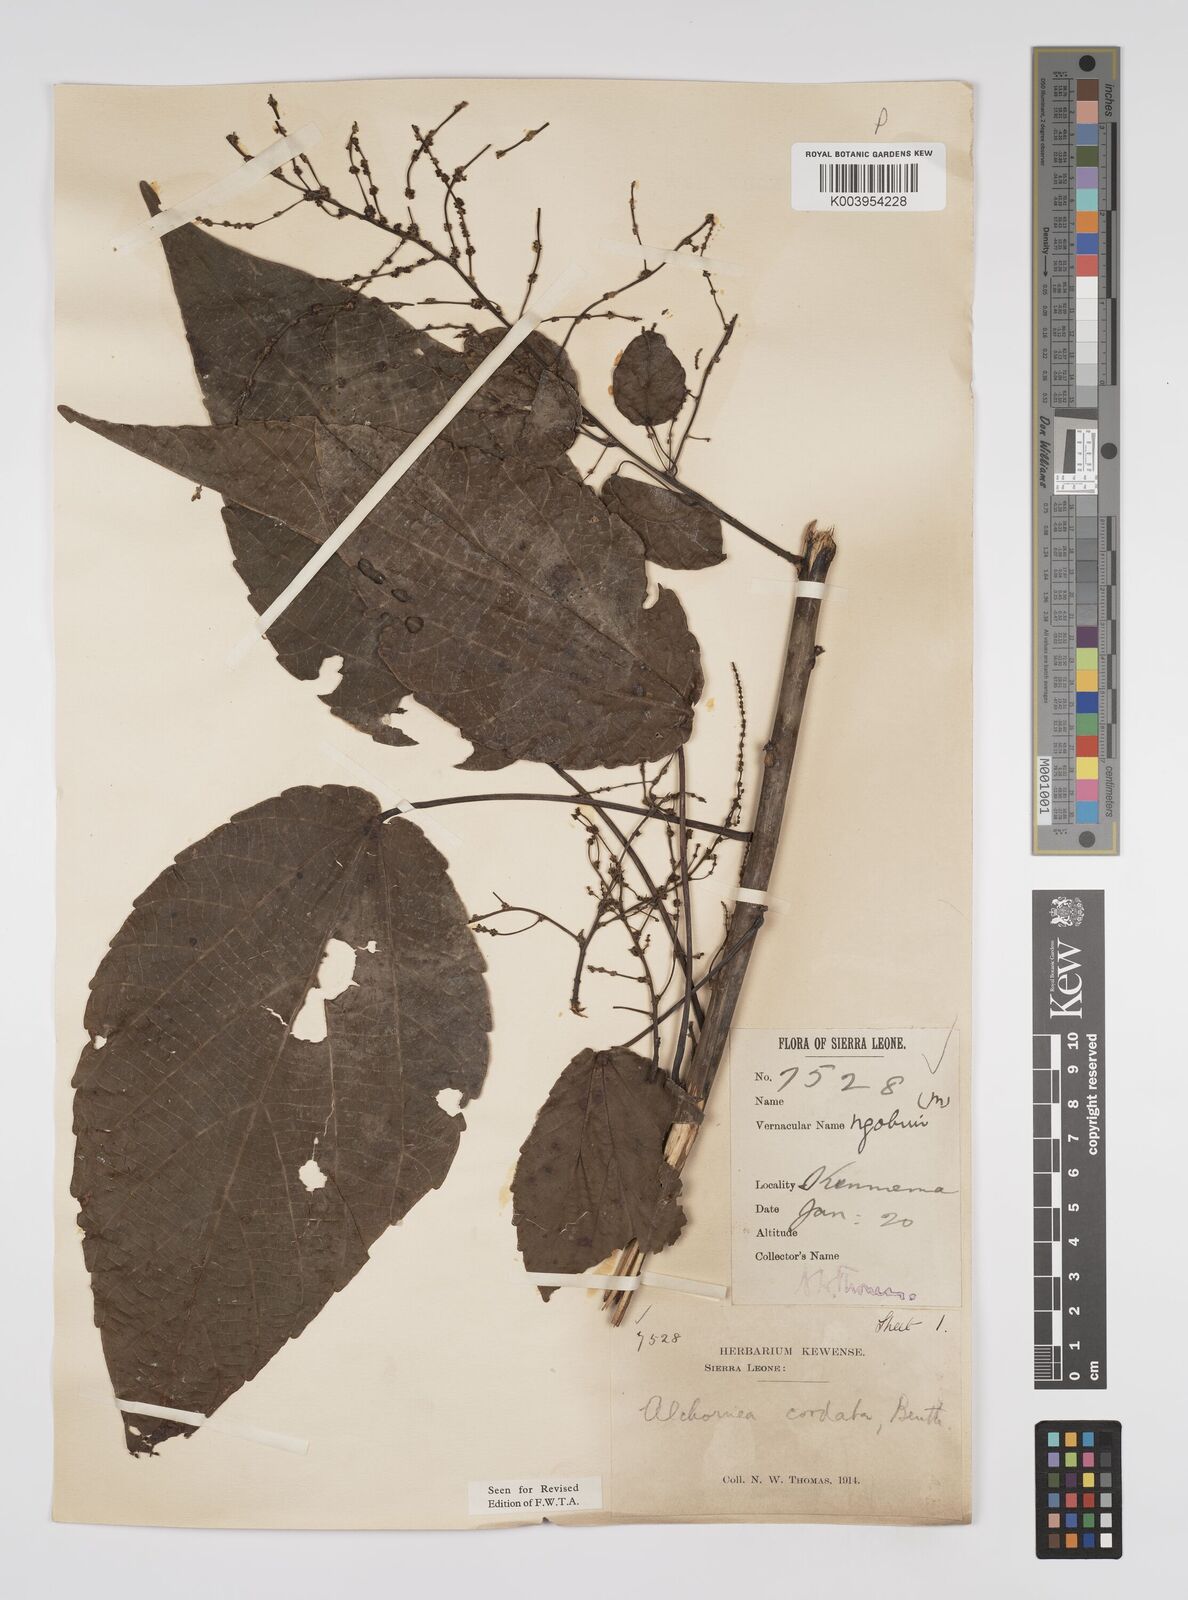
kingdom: Plantae
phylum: Tracheophyta
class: Magnoliopsida
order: Malpighiales
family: Euphorbiaceae
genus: Alchornea
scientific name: Alchornea cordifolia
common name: Christmasbush
